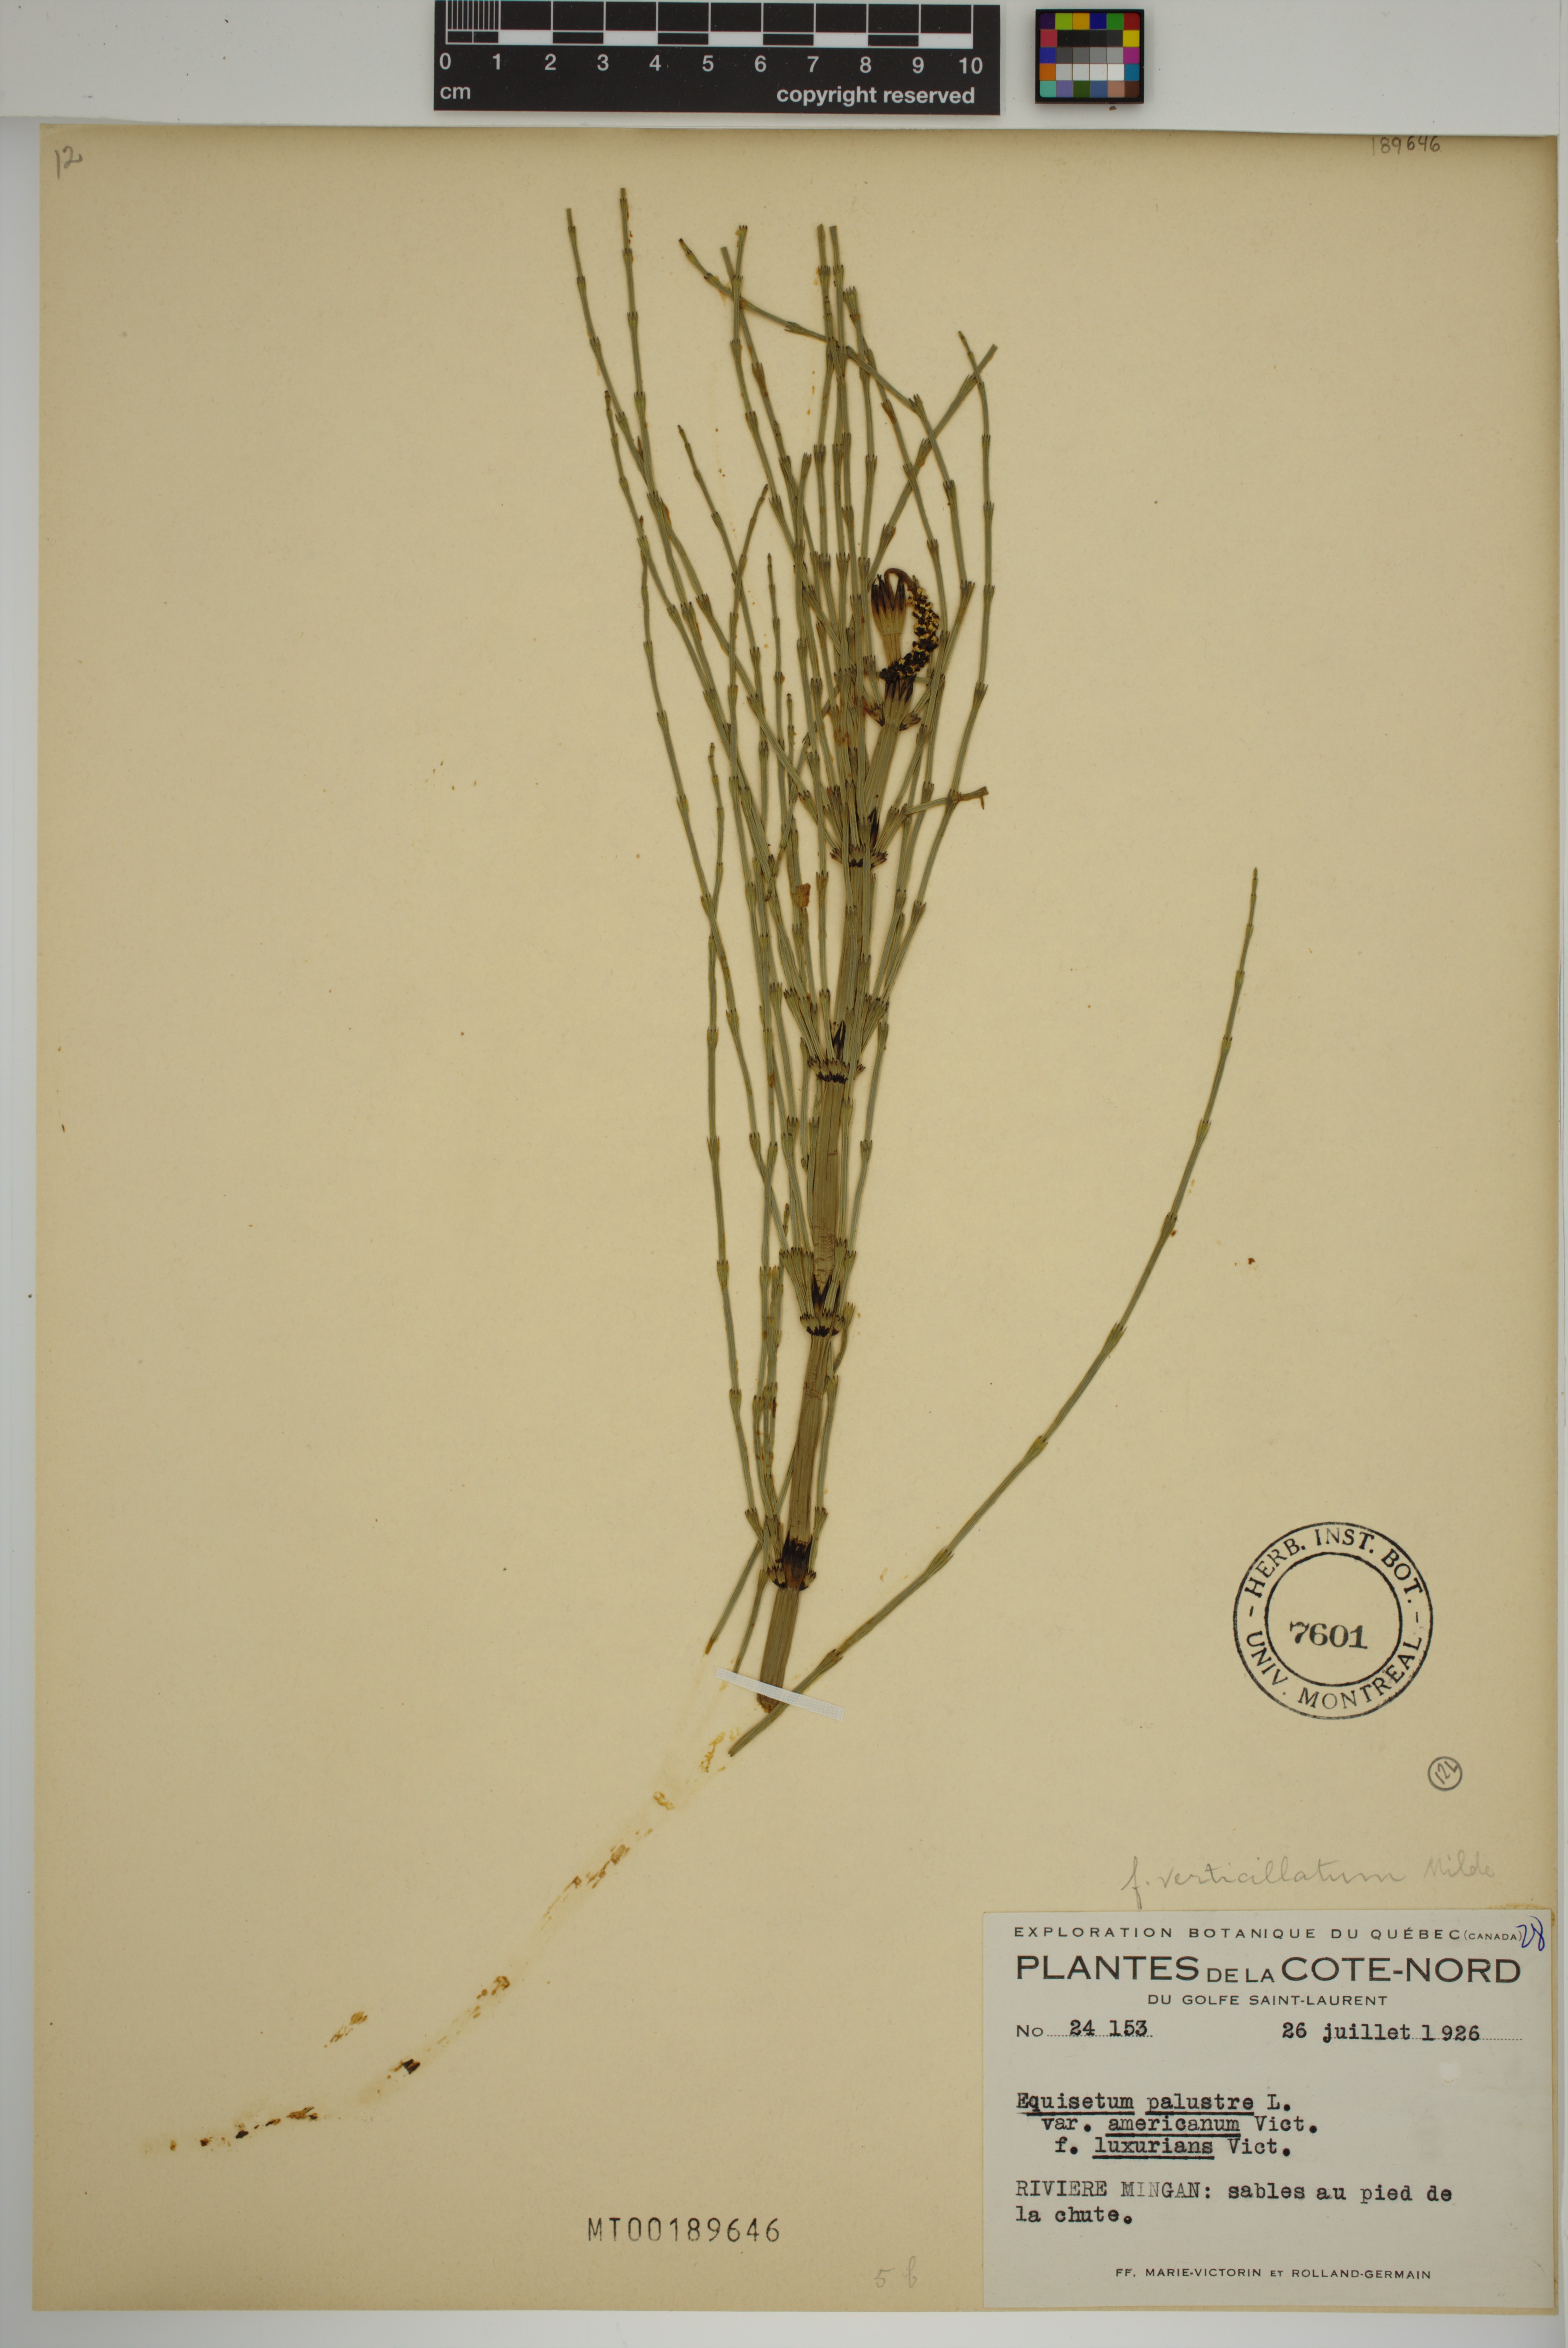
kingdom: Plantae
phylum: Tracheophyta
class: Polypodiopsida
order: Equisetales
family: Equisetaceae
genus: Equisetum
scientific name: Equisetum palustre
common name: Marsh horsetail
